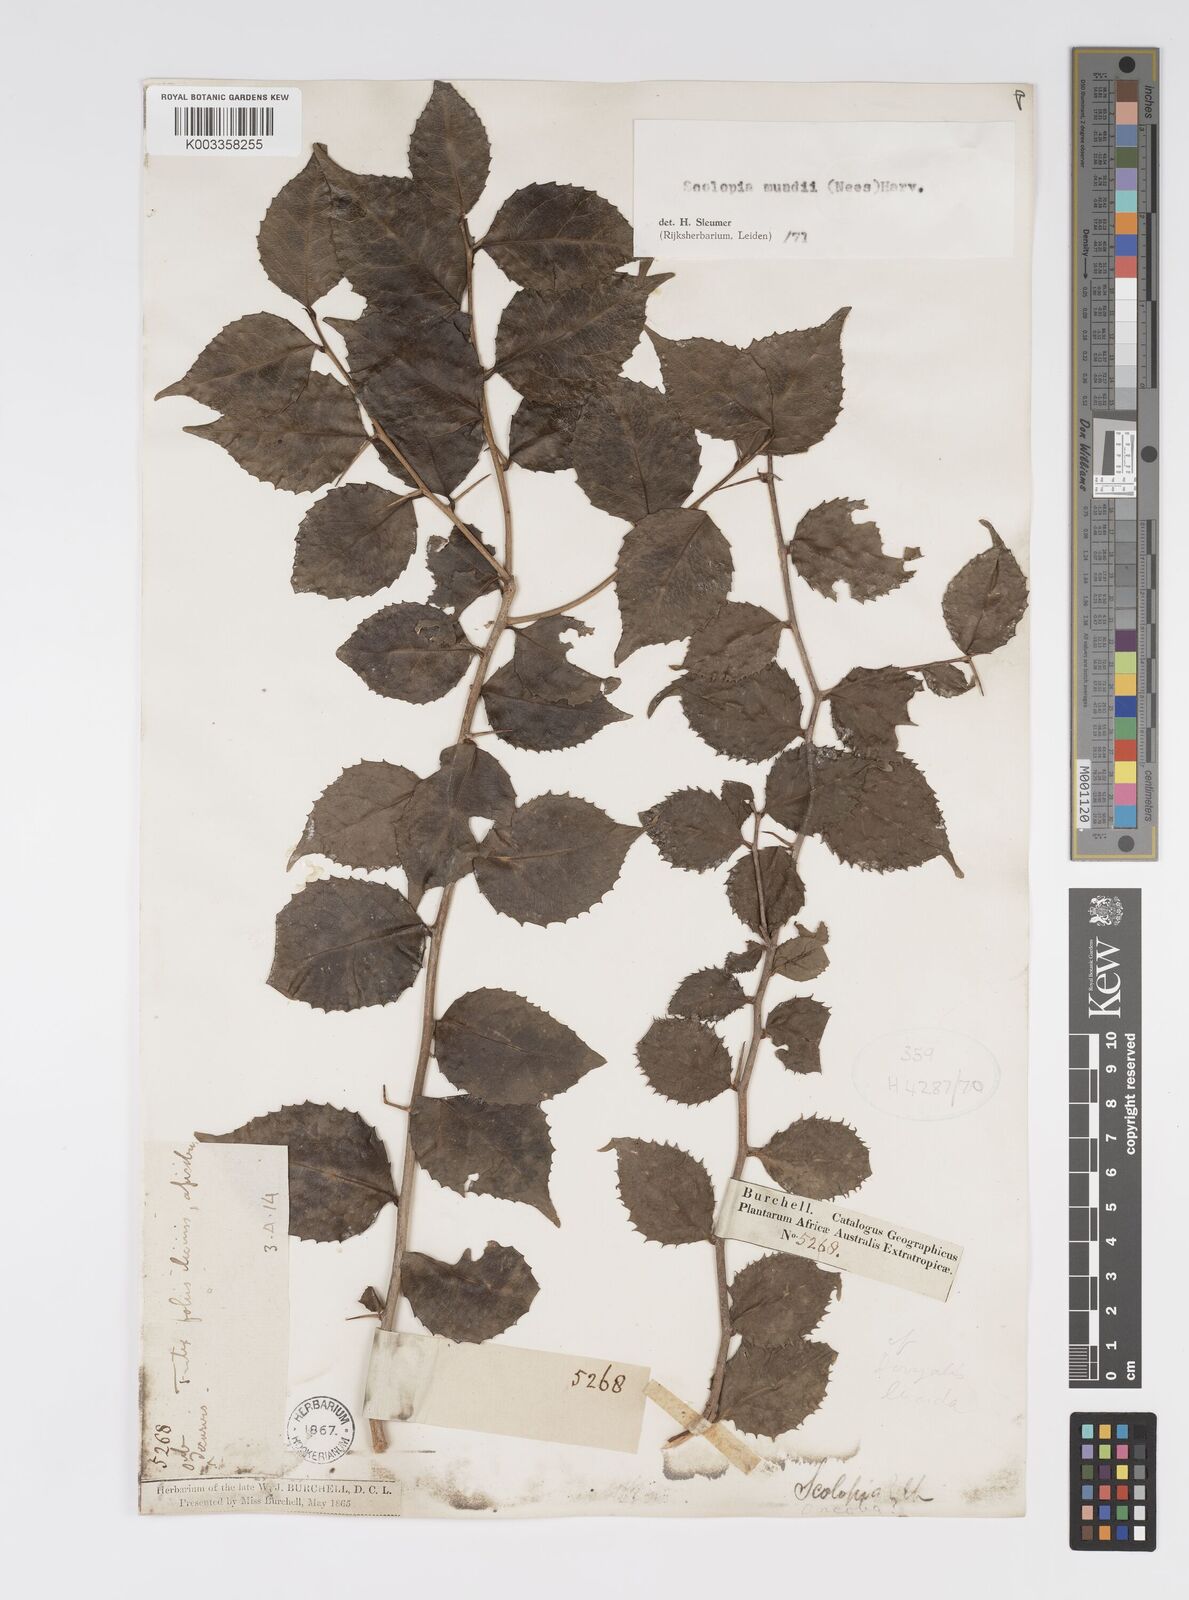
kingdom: Plantae
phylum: Tracheophyta
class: Magnoliopsida
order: Malpighiales
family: Salicaceae
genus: Scolopia
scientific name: Scolopia mundii
